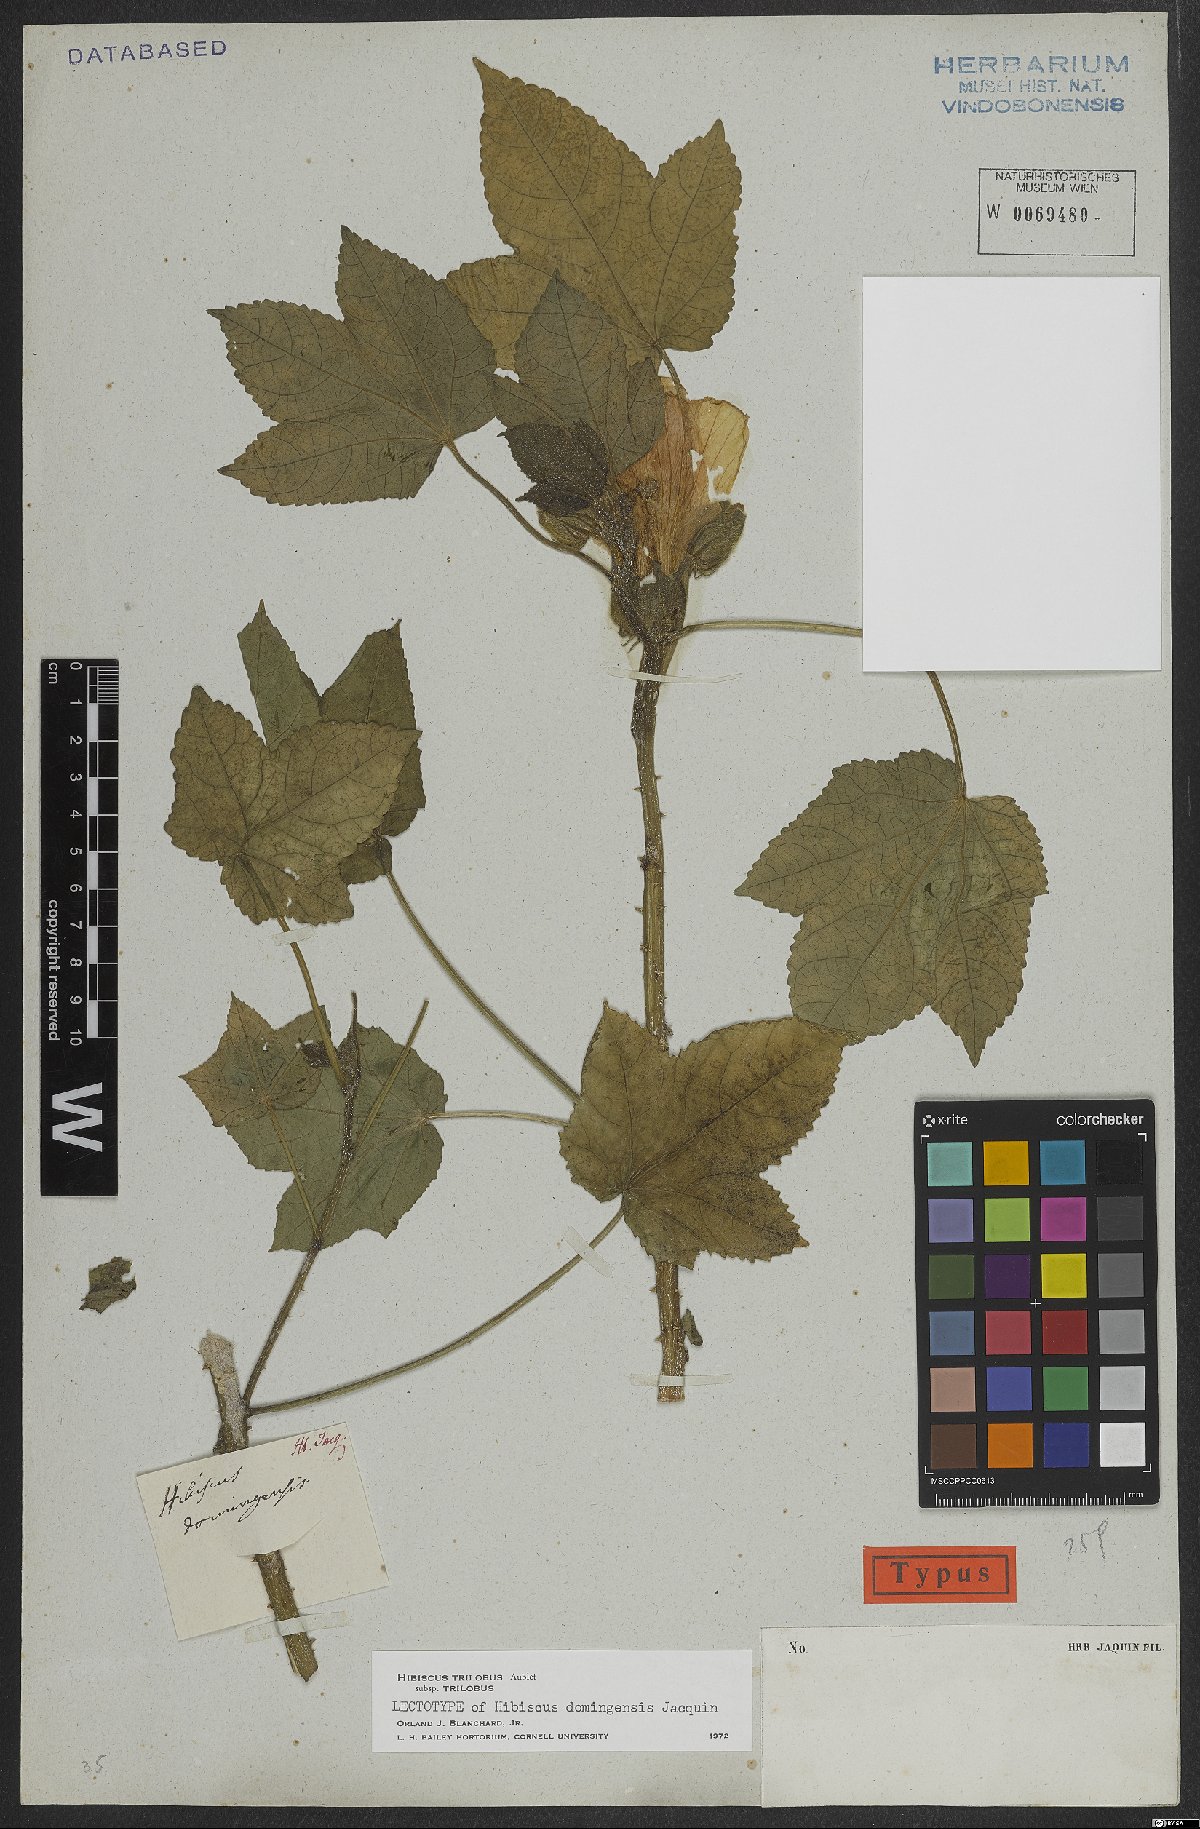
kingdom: Plantae
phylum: Tracheophyta
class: Magnoliopsida
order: Malvales
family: Malvaceae
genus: Hibiscus
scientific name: Hibiscus trilobus
